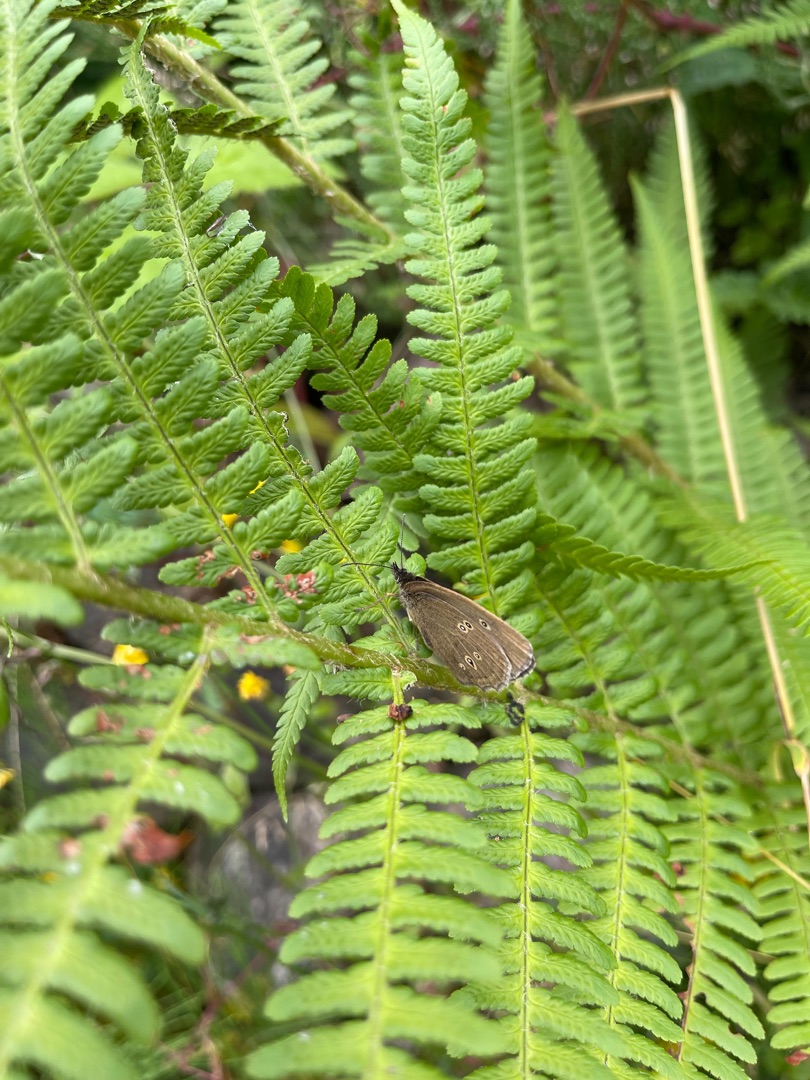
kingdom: Animalia
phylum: Arthropoda
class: Insecta
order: Lepidoptera
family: Nymphalidae
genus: Aphantopus
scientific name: Aphantopus hyperantus
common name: Engrandøje
